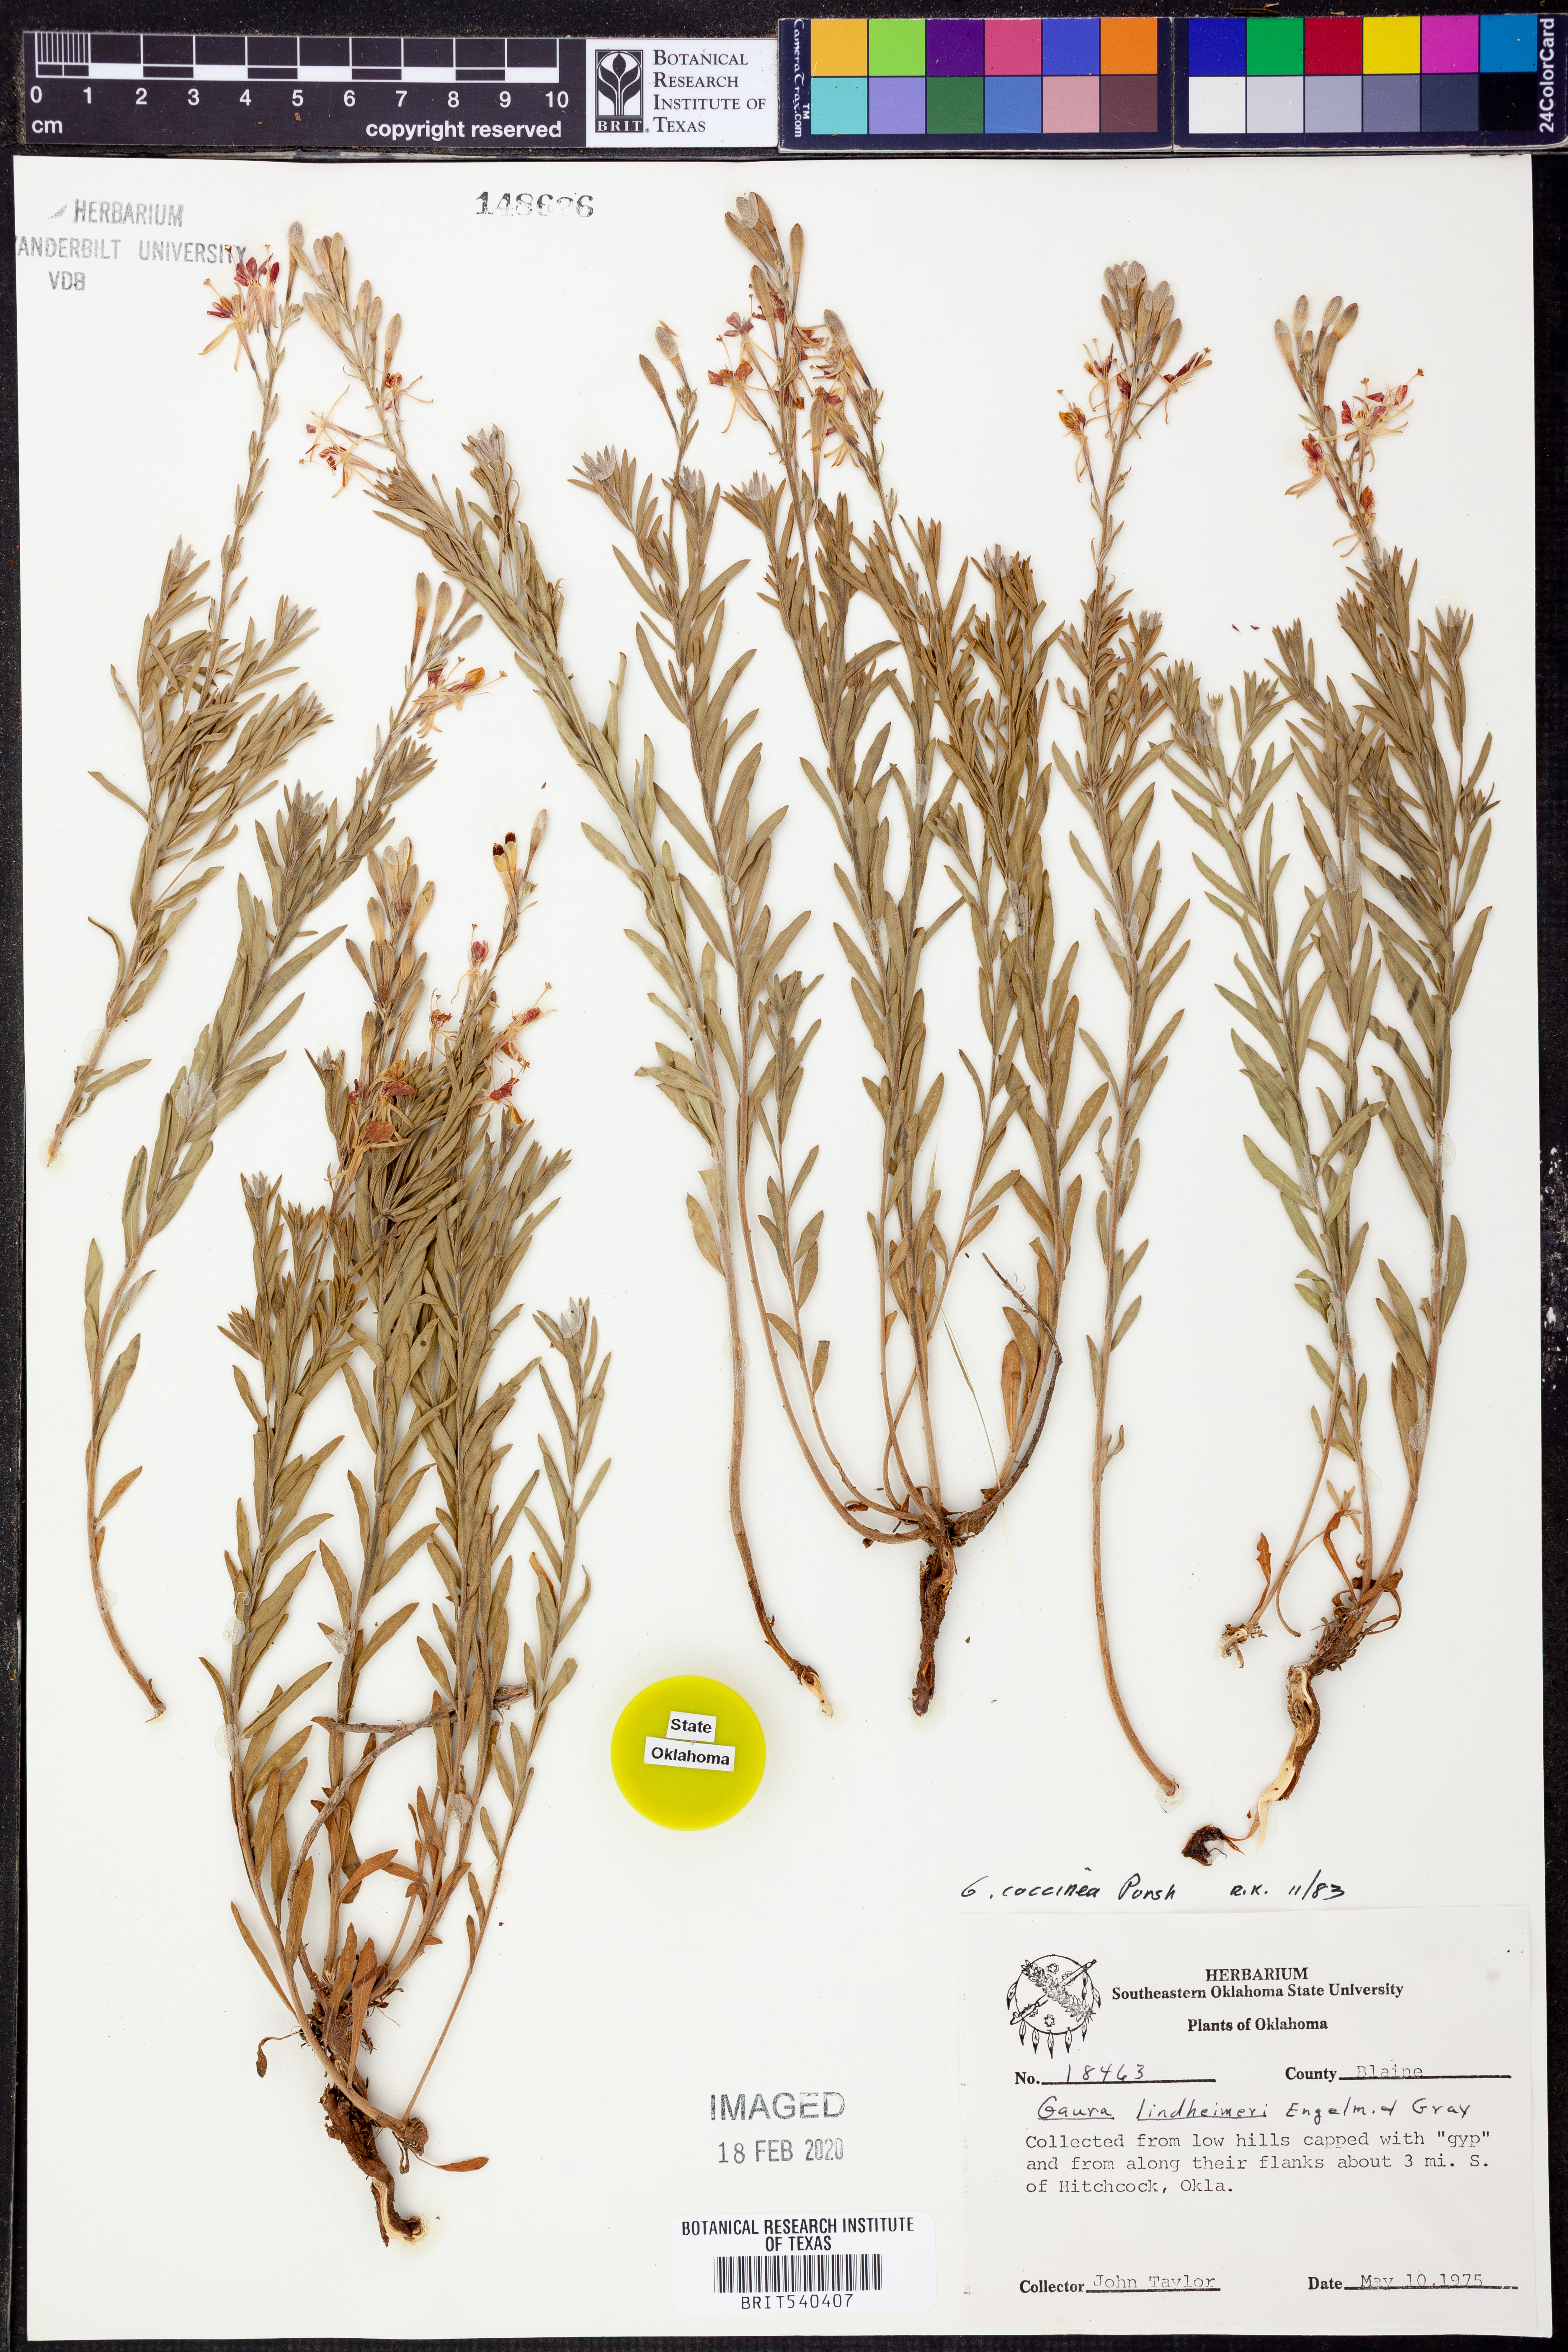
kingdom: Plantae
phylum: Tracheophyta
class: Magnoliopsida
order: Myrtales
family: Onagraceae
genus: Oenothera
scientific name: Oenothera suffrutescens
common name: Scarlet beeblossom
